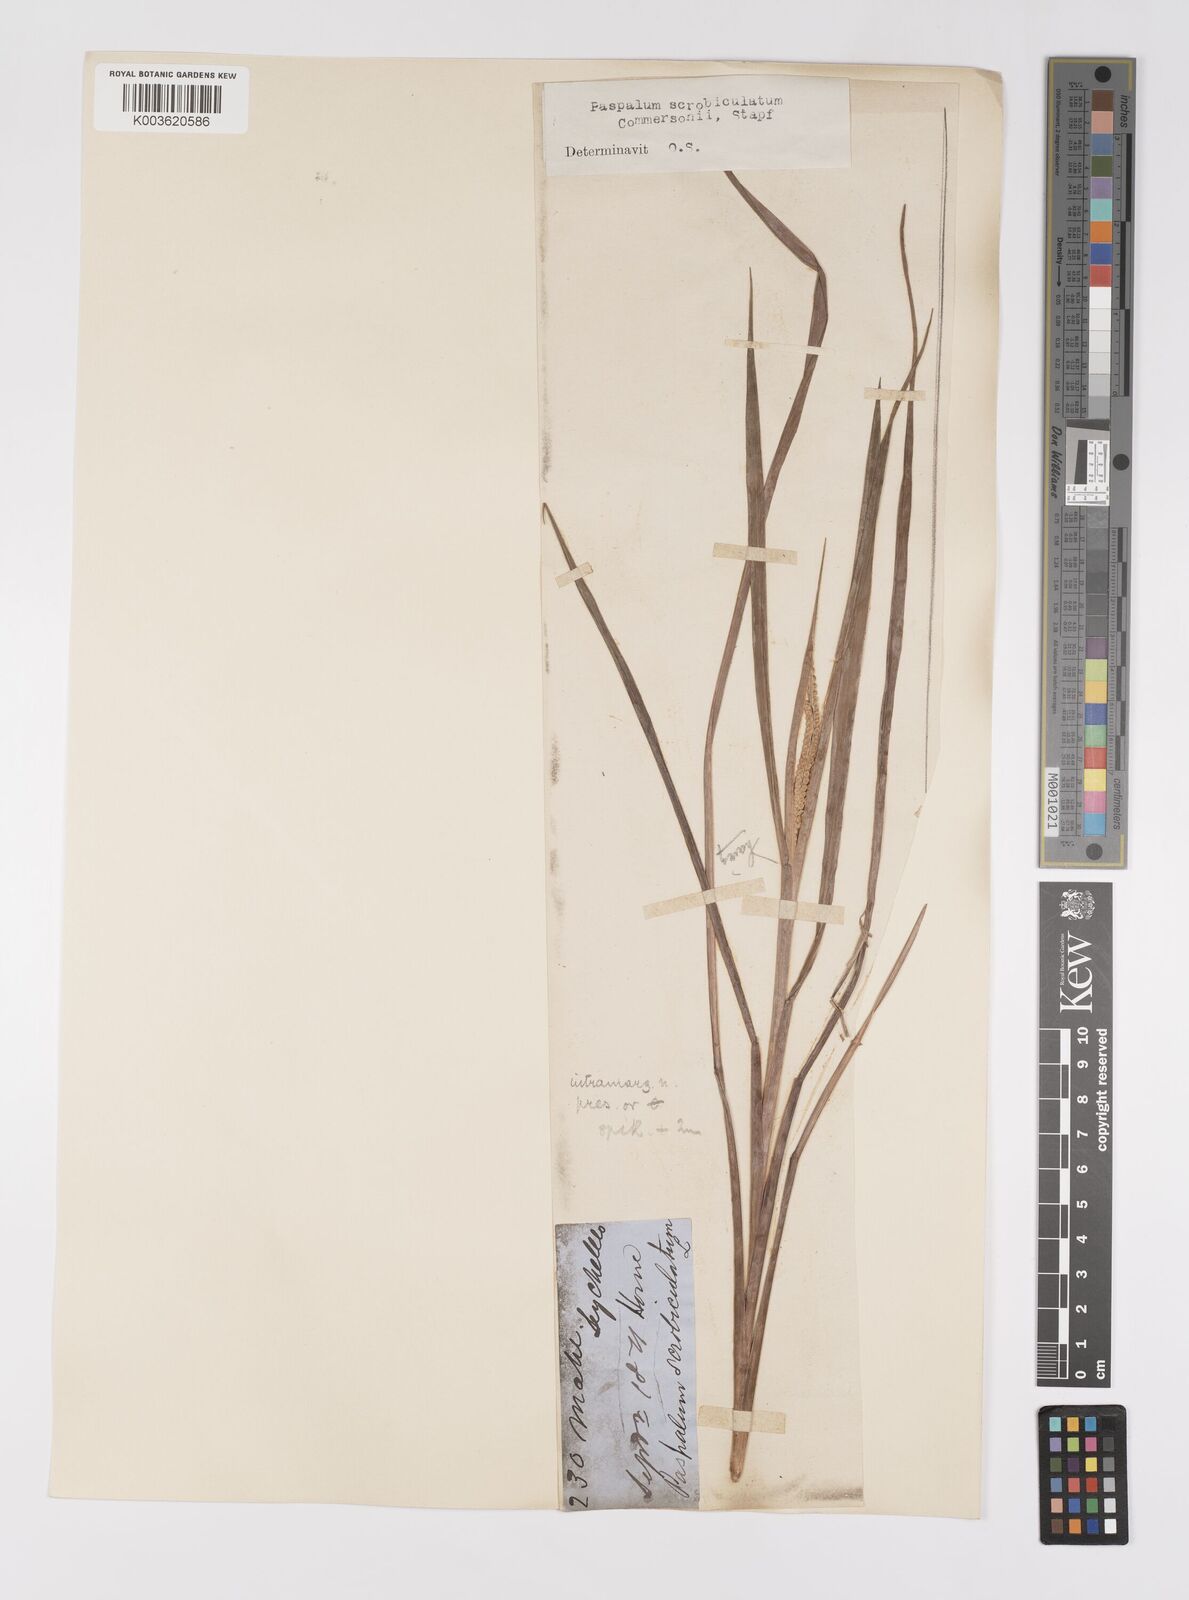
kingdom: Plantae
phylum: Tracheophyta
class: Liliopsida
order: Poales
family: Poaceae
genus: Paspalum
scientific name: Paspalum scrobiculatum
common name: Kodo millet
